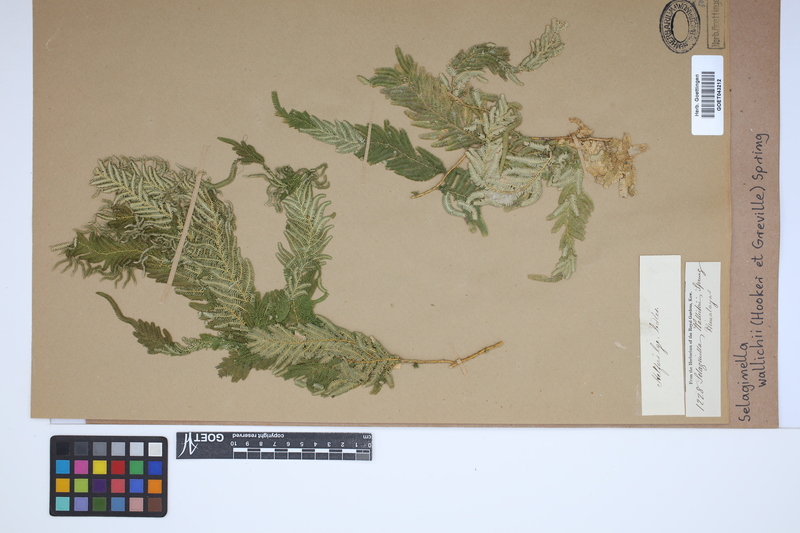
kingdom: Plantae
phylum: Tracheophyta
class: Lycopodiopsida
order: Selaginellales
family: Selaginellaceae
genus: Selaginella
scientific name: Selaginella wallichii
